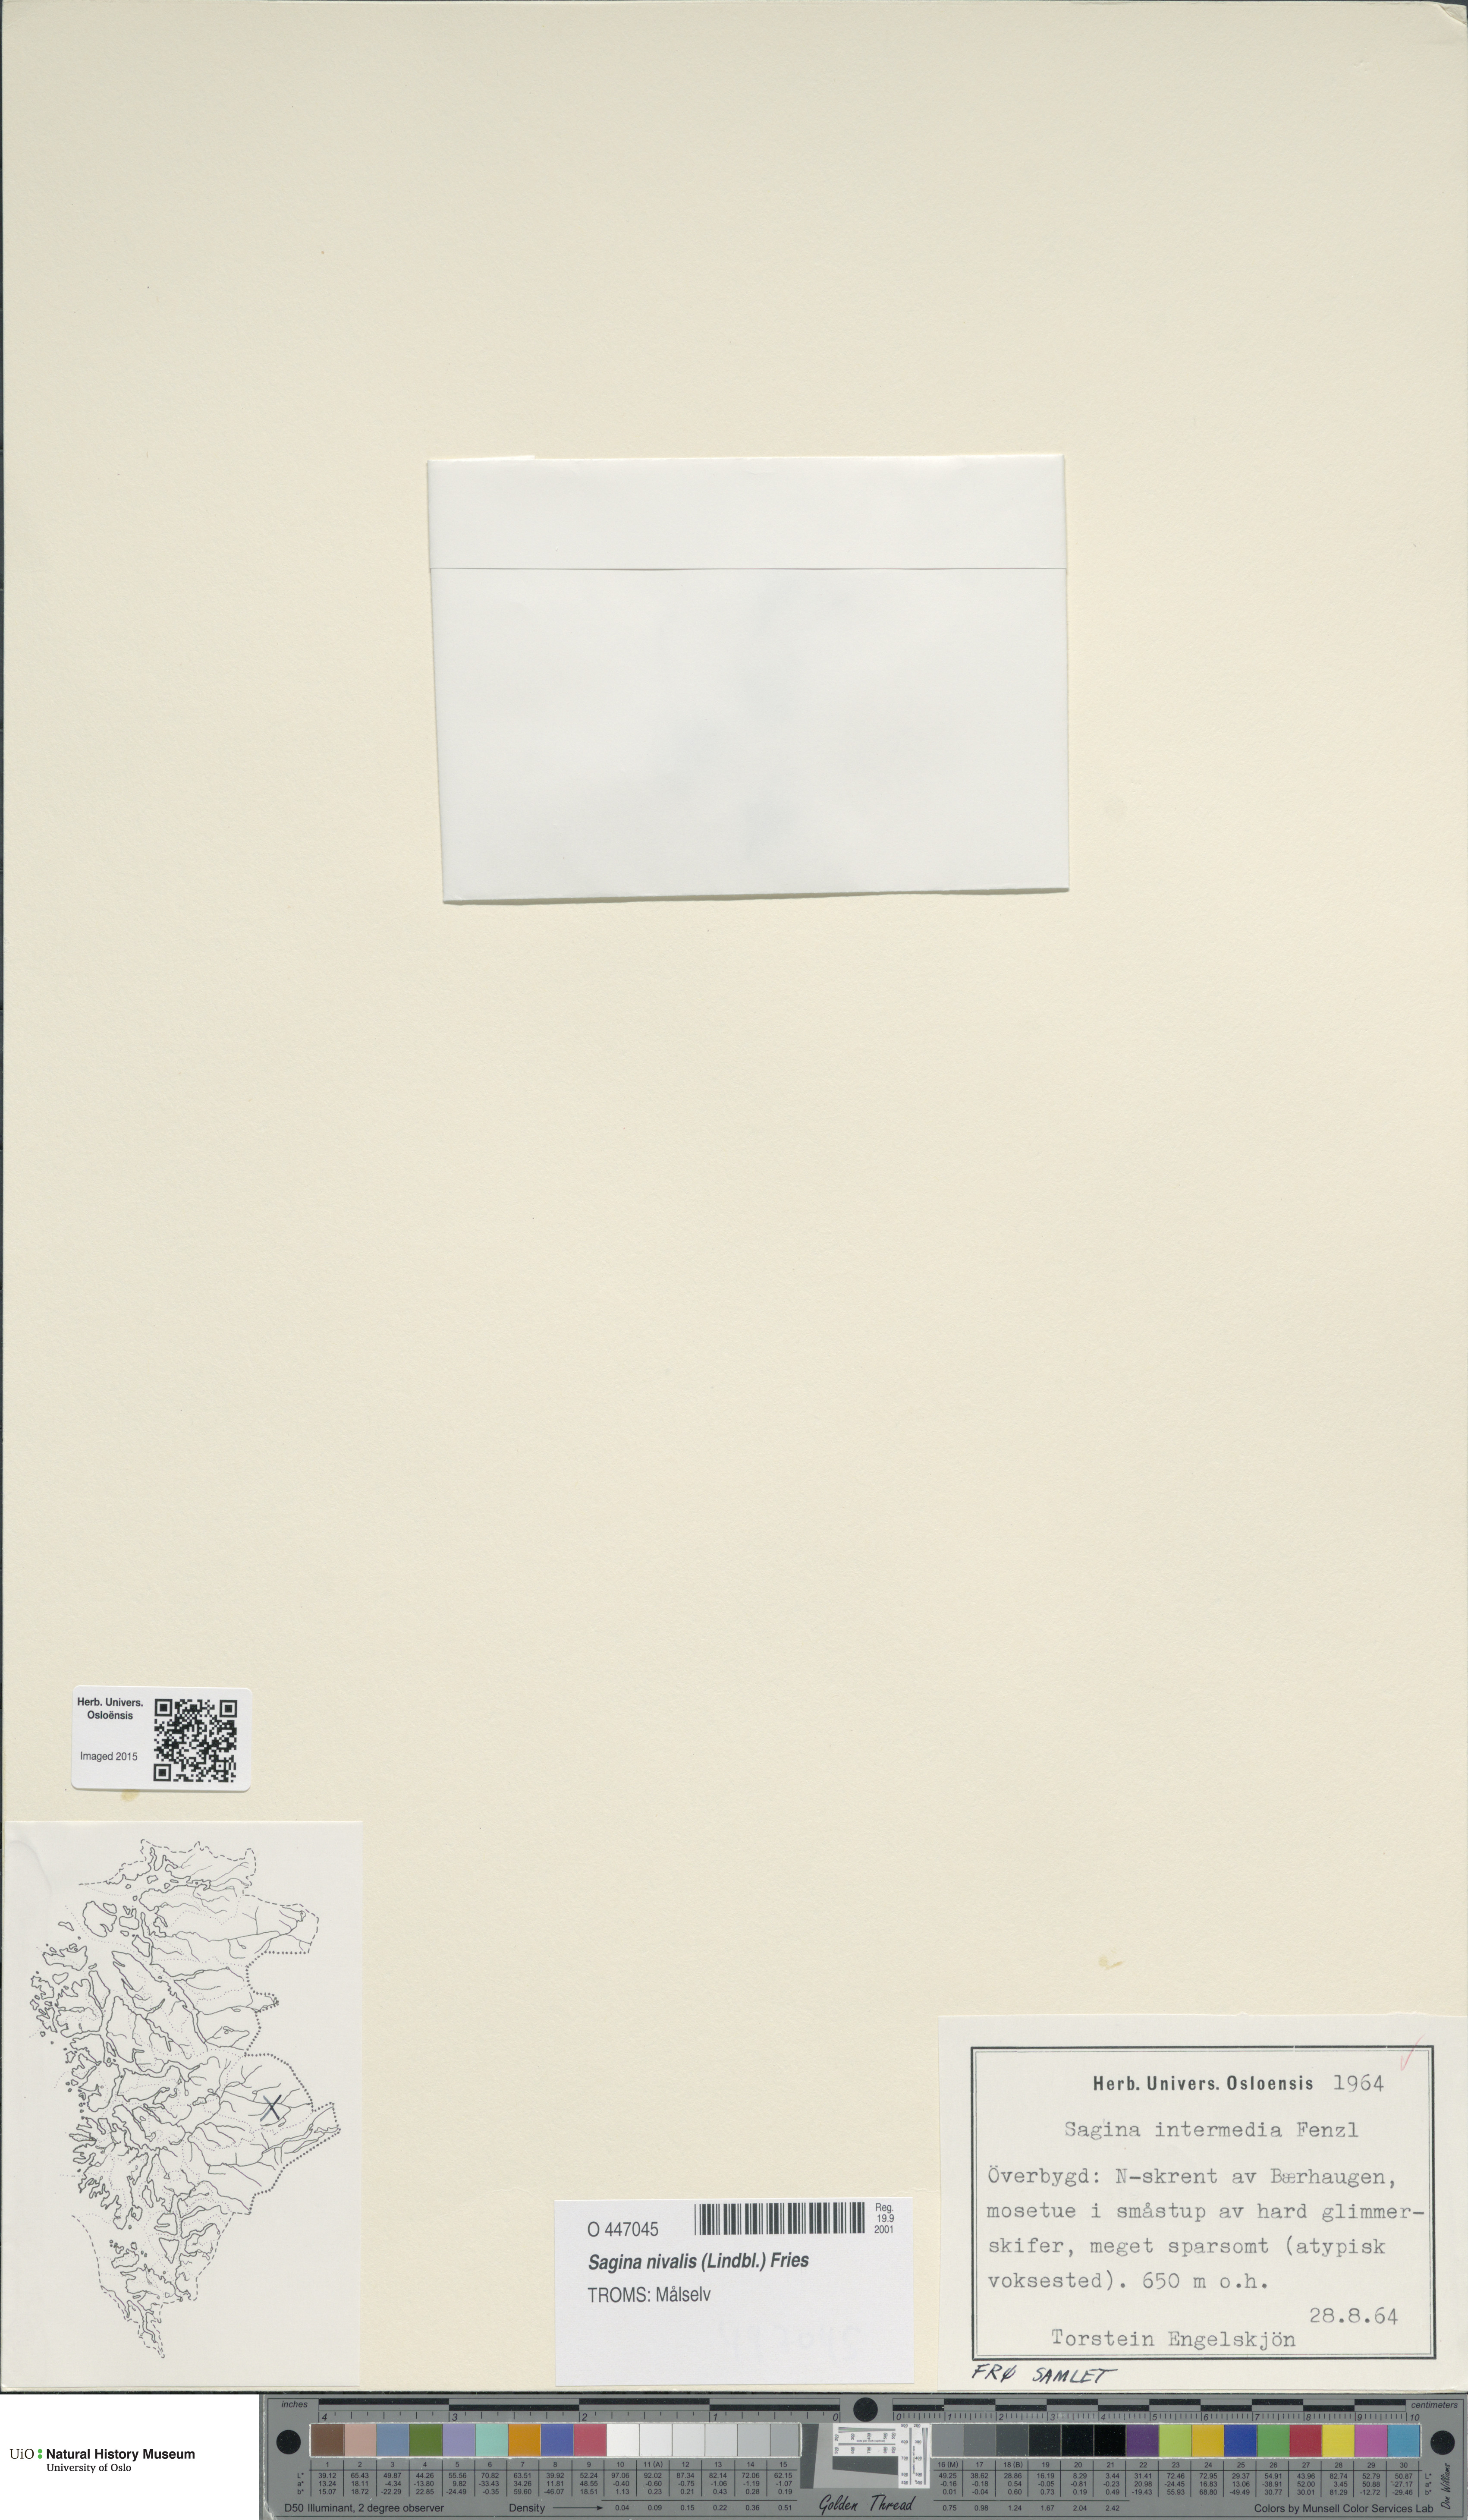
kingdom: Plantae
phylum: Tracheophyta
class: Magnoliopsida
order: Caryophyllales
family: Caryophyllaceae
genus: Sagina
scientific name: Sagina nivalis
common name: Snow pearlwort
